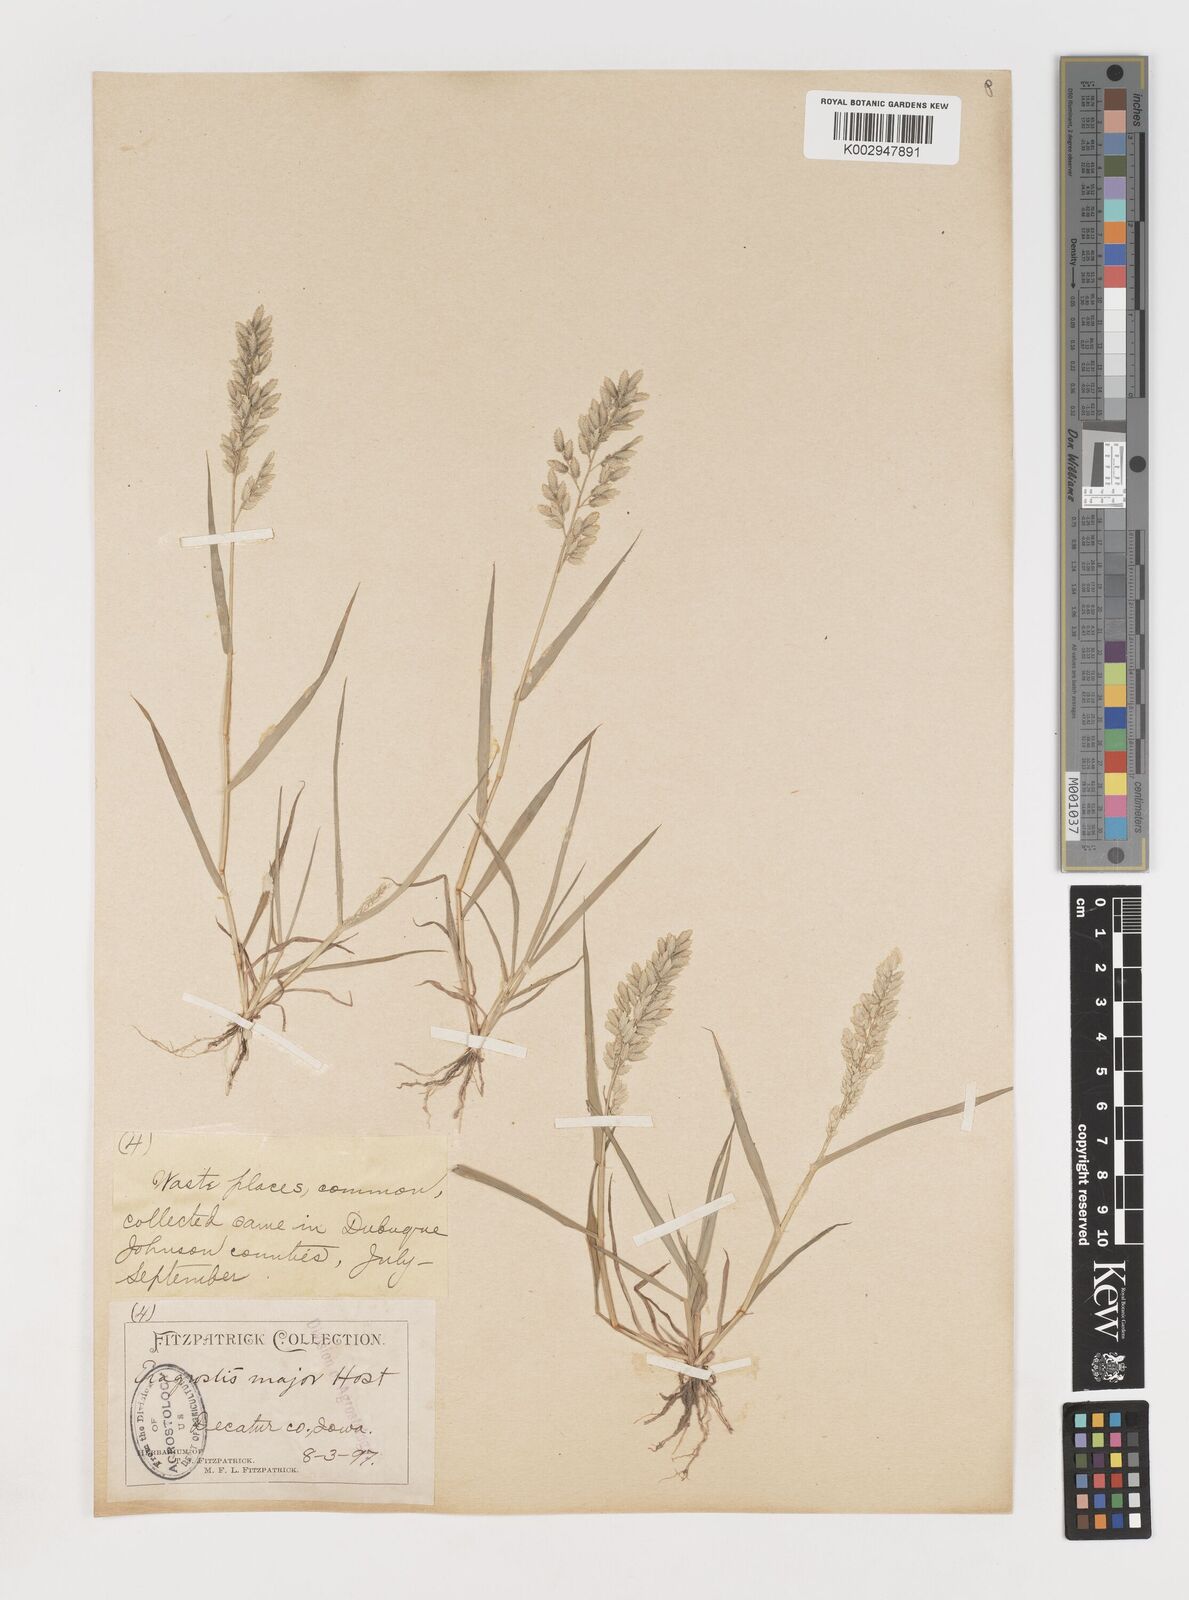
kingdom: Plantae
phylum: Tracheophyta
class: Liliopsida
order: Poales
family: Poaceae
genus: Eragrostis
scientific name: Eragrostis cilianensis
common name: Stinkgrass
